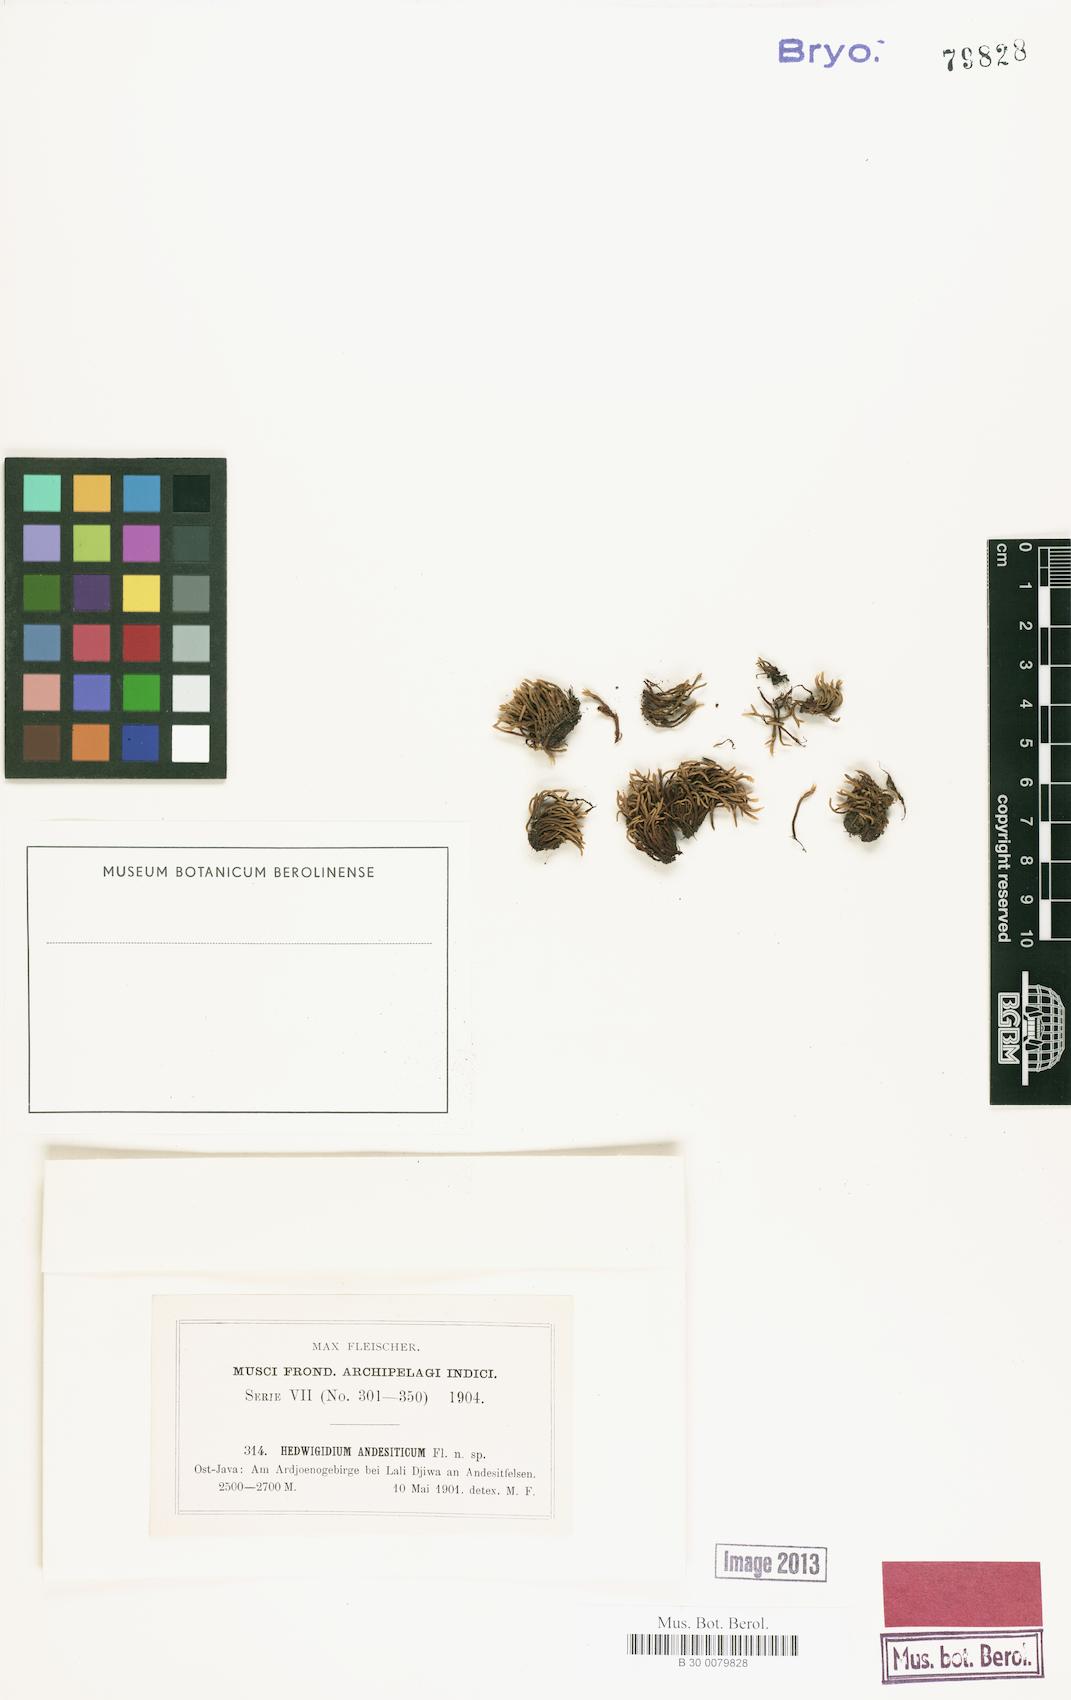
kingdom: Plantae
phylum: Bryophyta
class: Bryopsida
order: Hedwigiales
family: Hedwigiaceae
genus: Hedwigidium
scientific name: Hedwigidium
